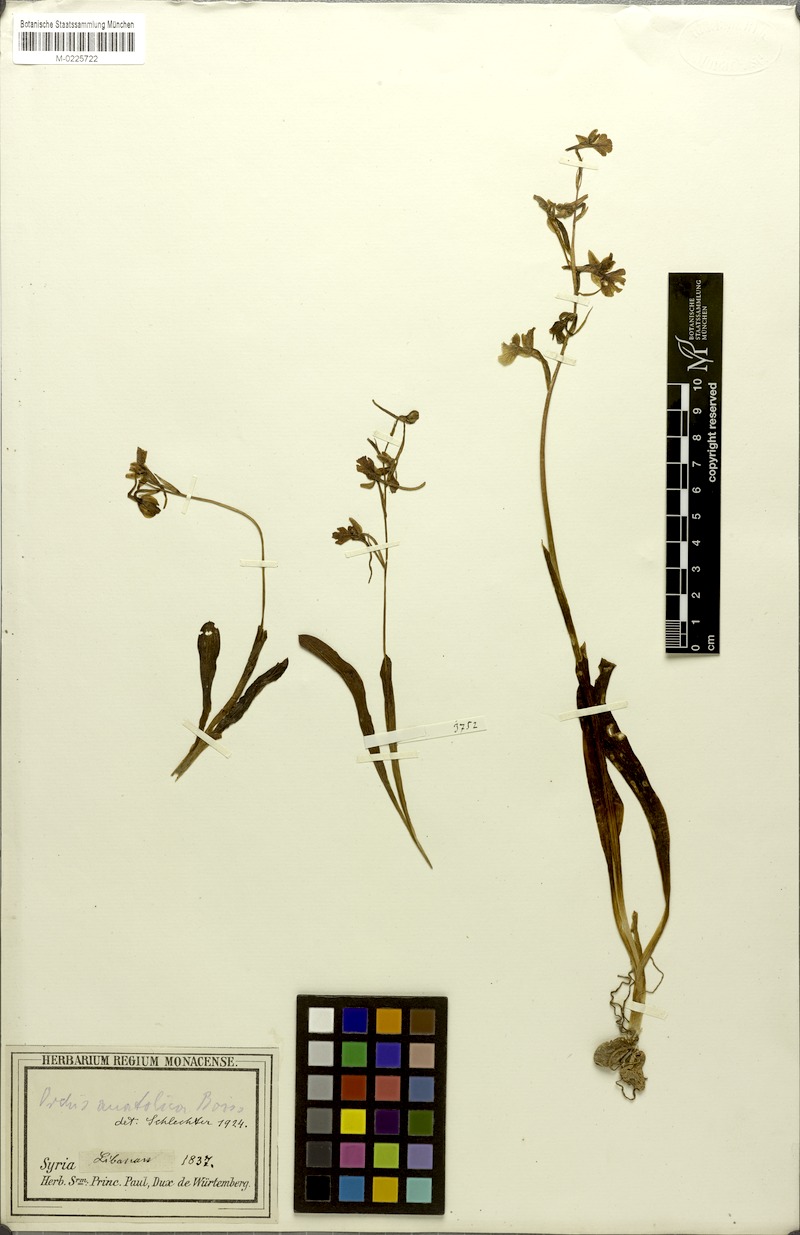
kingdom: Plantae
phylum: Tracheophyta
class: Liliopsida
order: Asparagales
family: Orchidaceae
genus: Orchis
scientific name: Orchis anatolica
